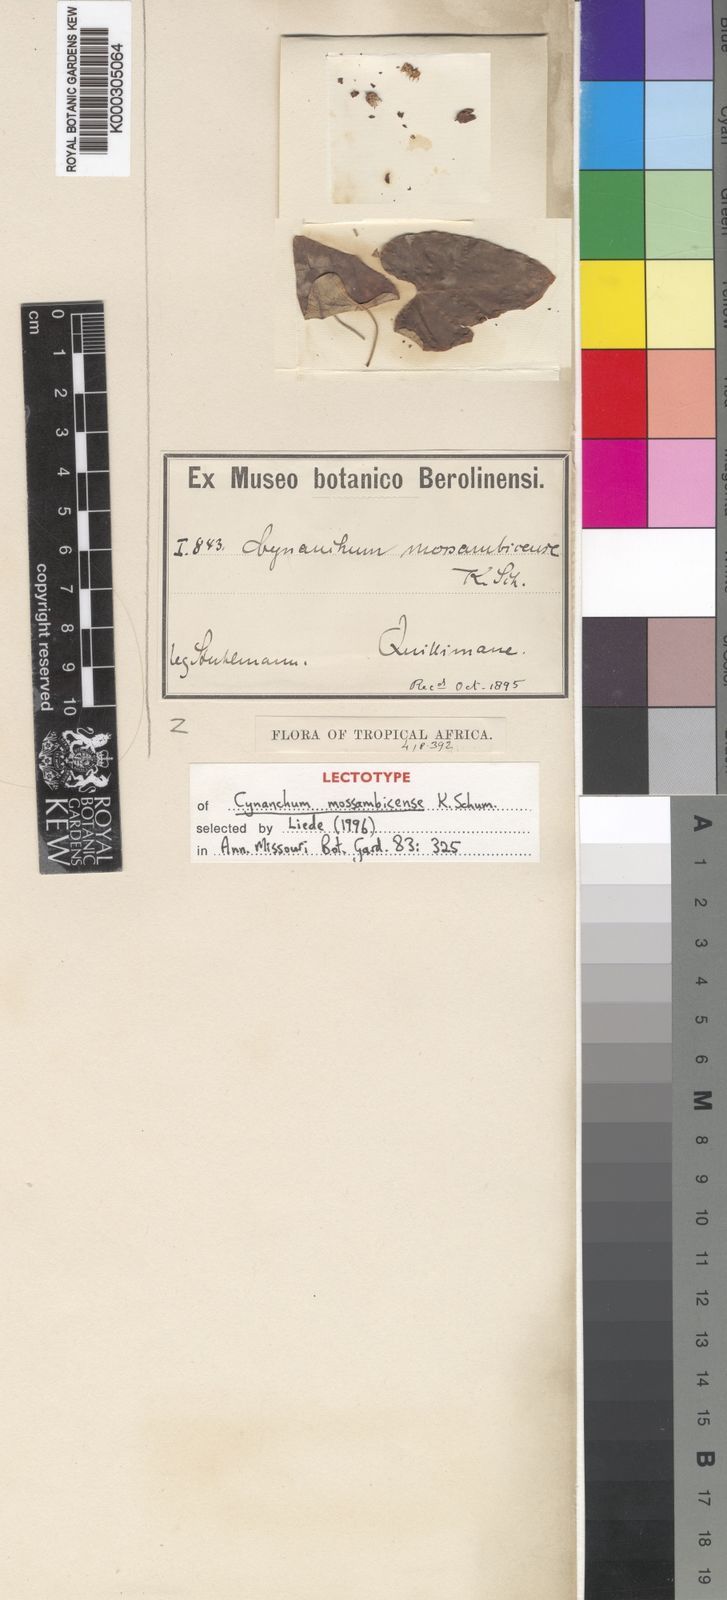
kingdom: Plantae
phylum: Tracheophyta
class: Magnoliopsida
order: Gentianales
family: Apocynaceae
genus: Cynanchum
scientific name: Cynanchum mossambicense
